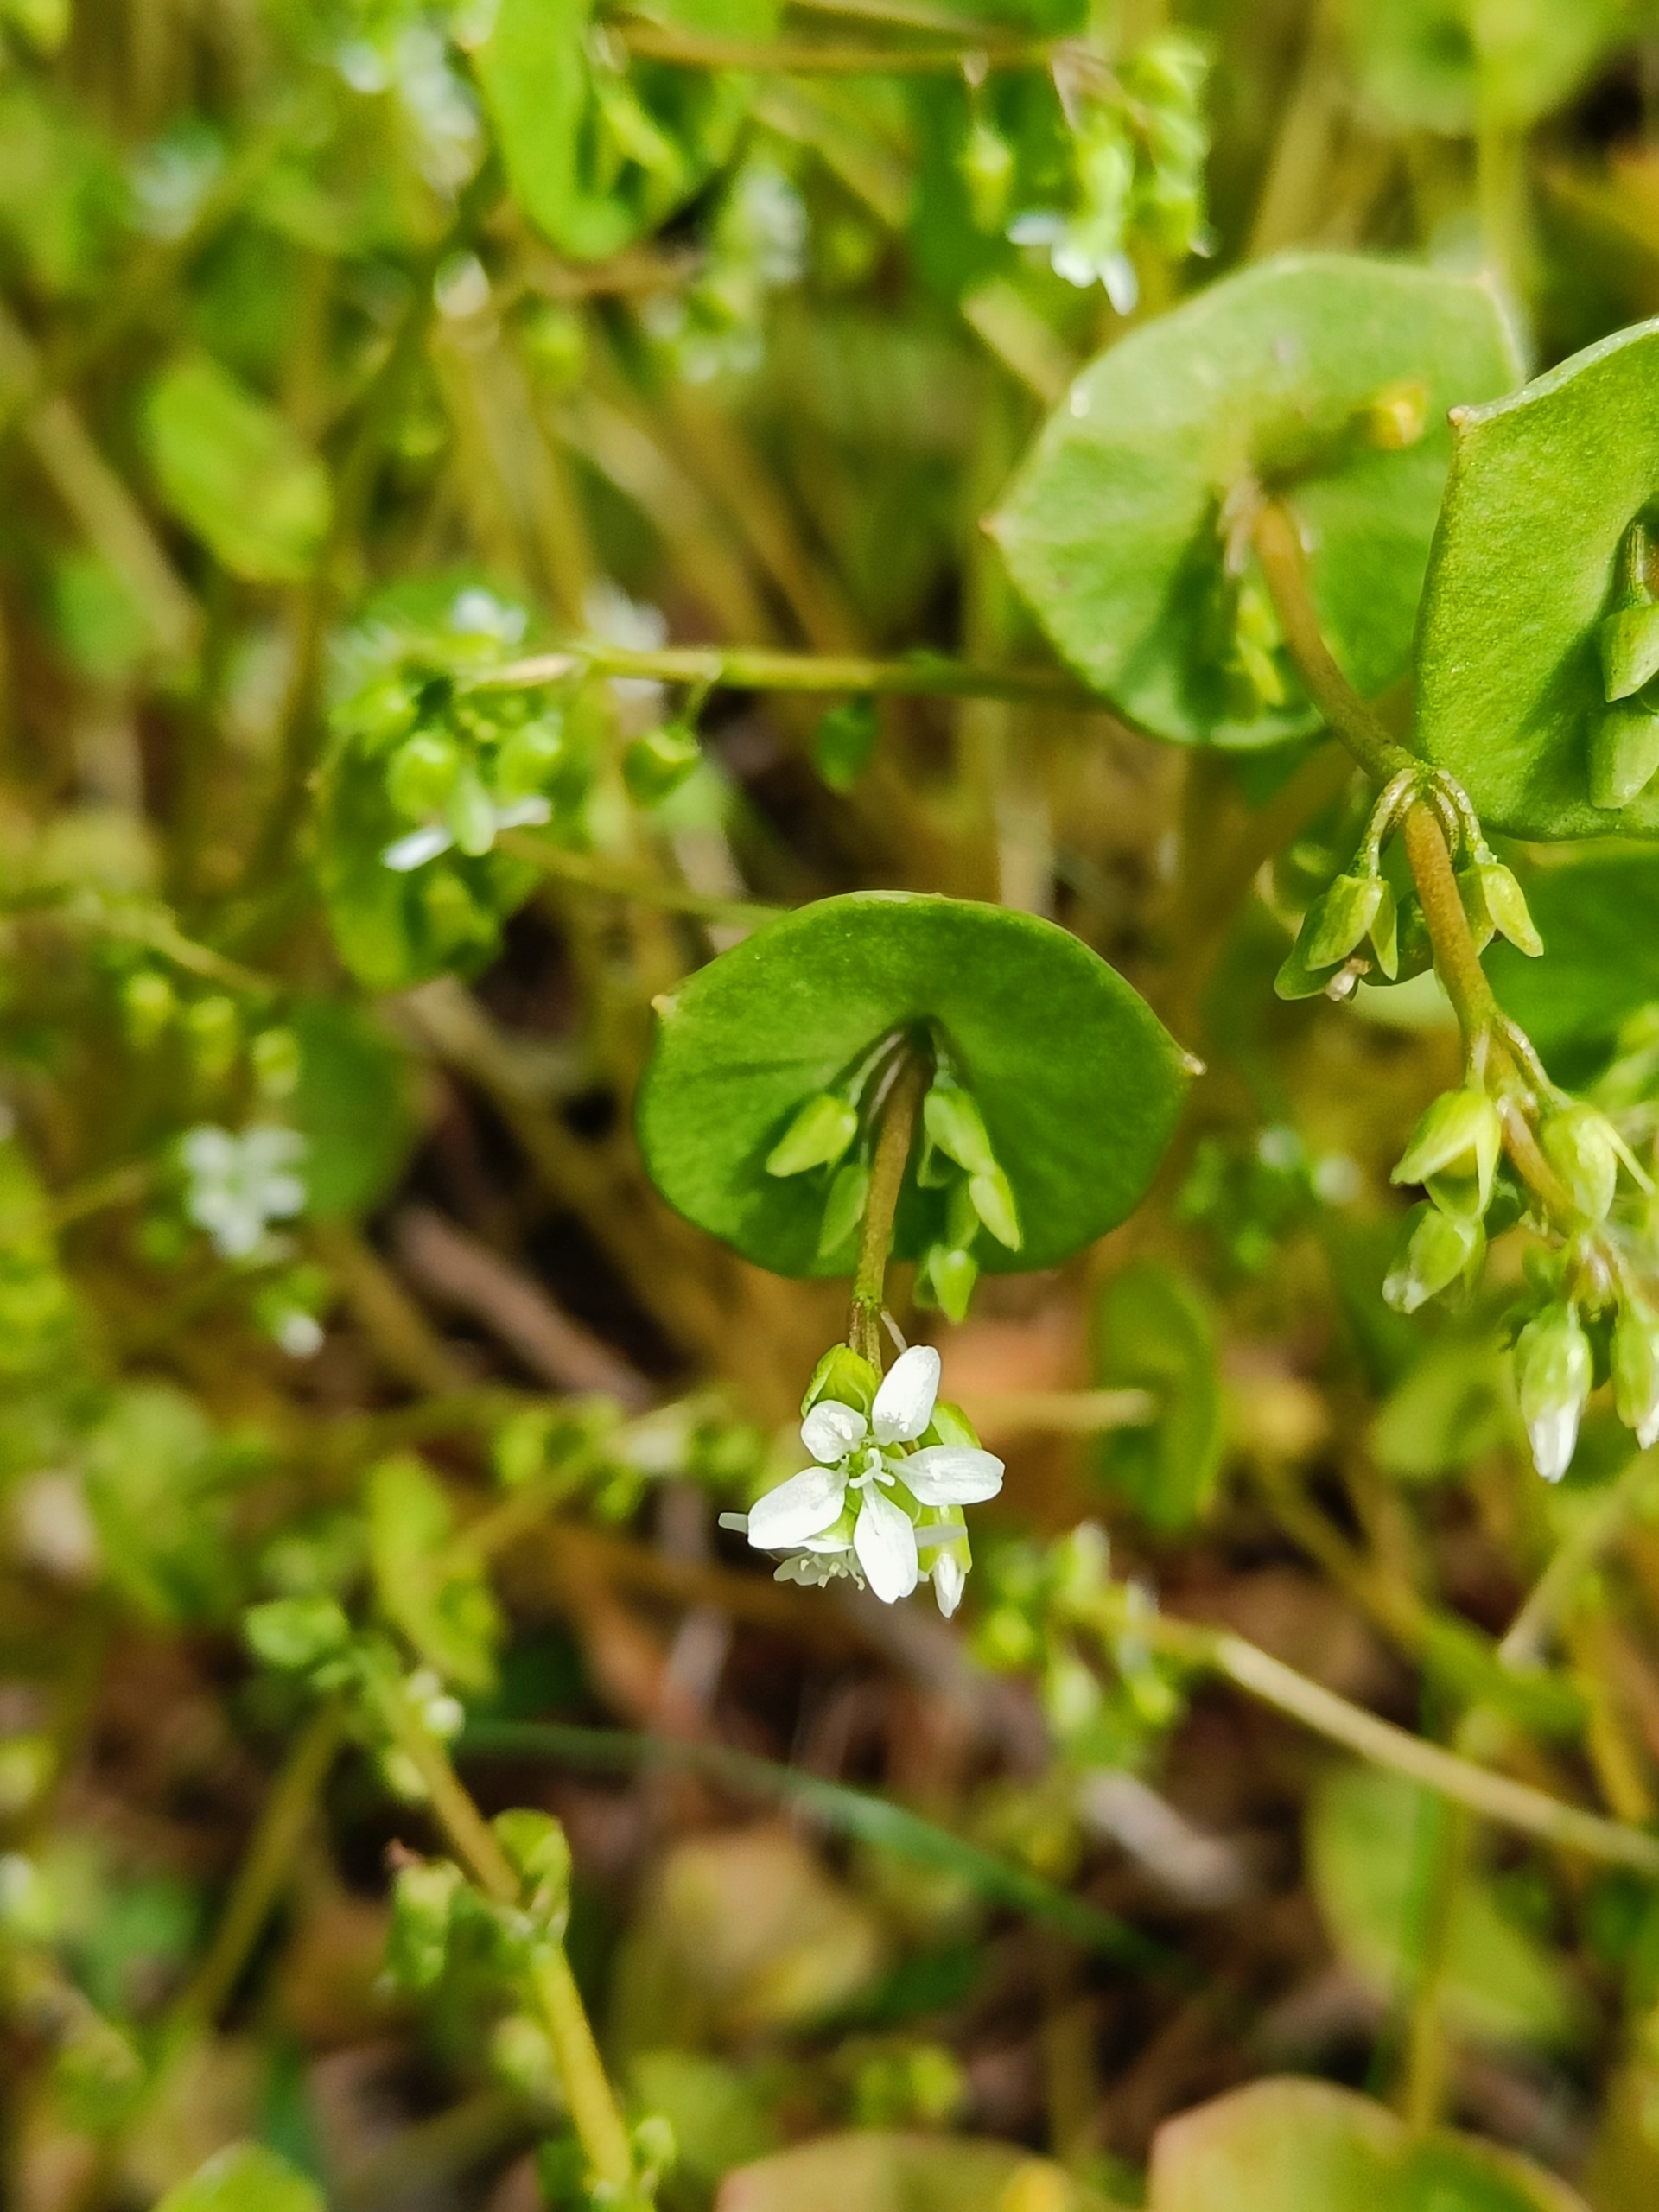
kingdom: Plantae
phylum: Tracheophyta
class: Magnoliopsida
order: Caryophyllales
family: Montiaceae
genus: Claytonia
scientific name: Claytonia perfoliata
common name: Spiselig vinterportulak
